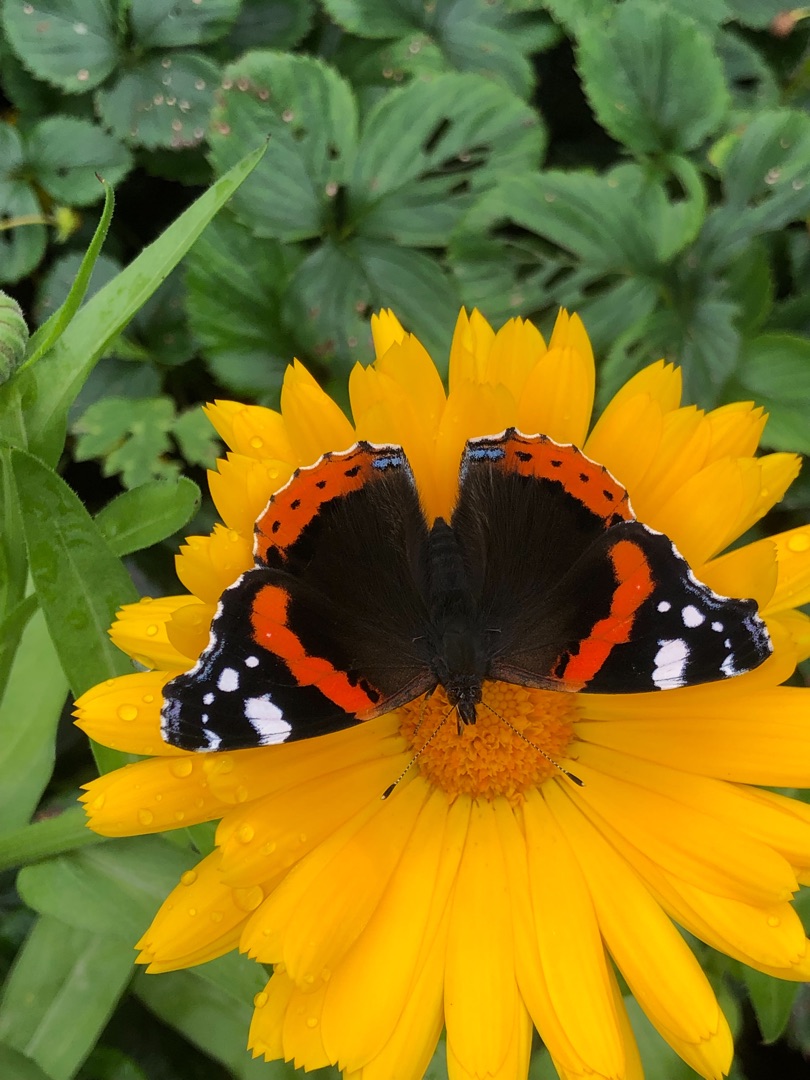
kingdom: Animalia
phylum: Arthropoda
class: Insecta
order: Lepidoptera
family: Nymphalidae
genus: Vanessa
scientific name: Vanessa atalanta
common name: Admiral
